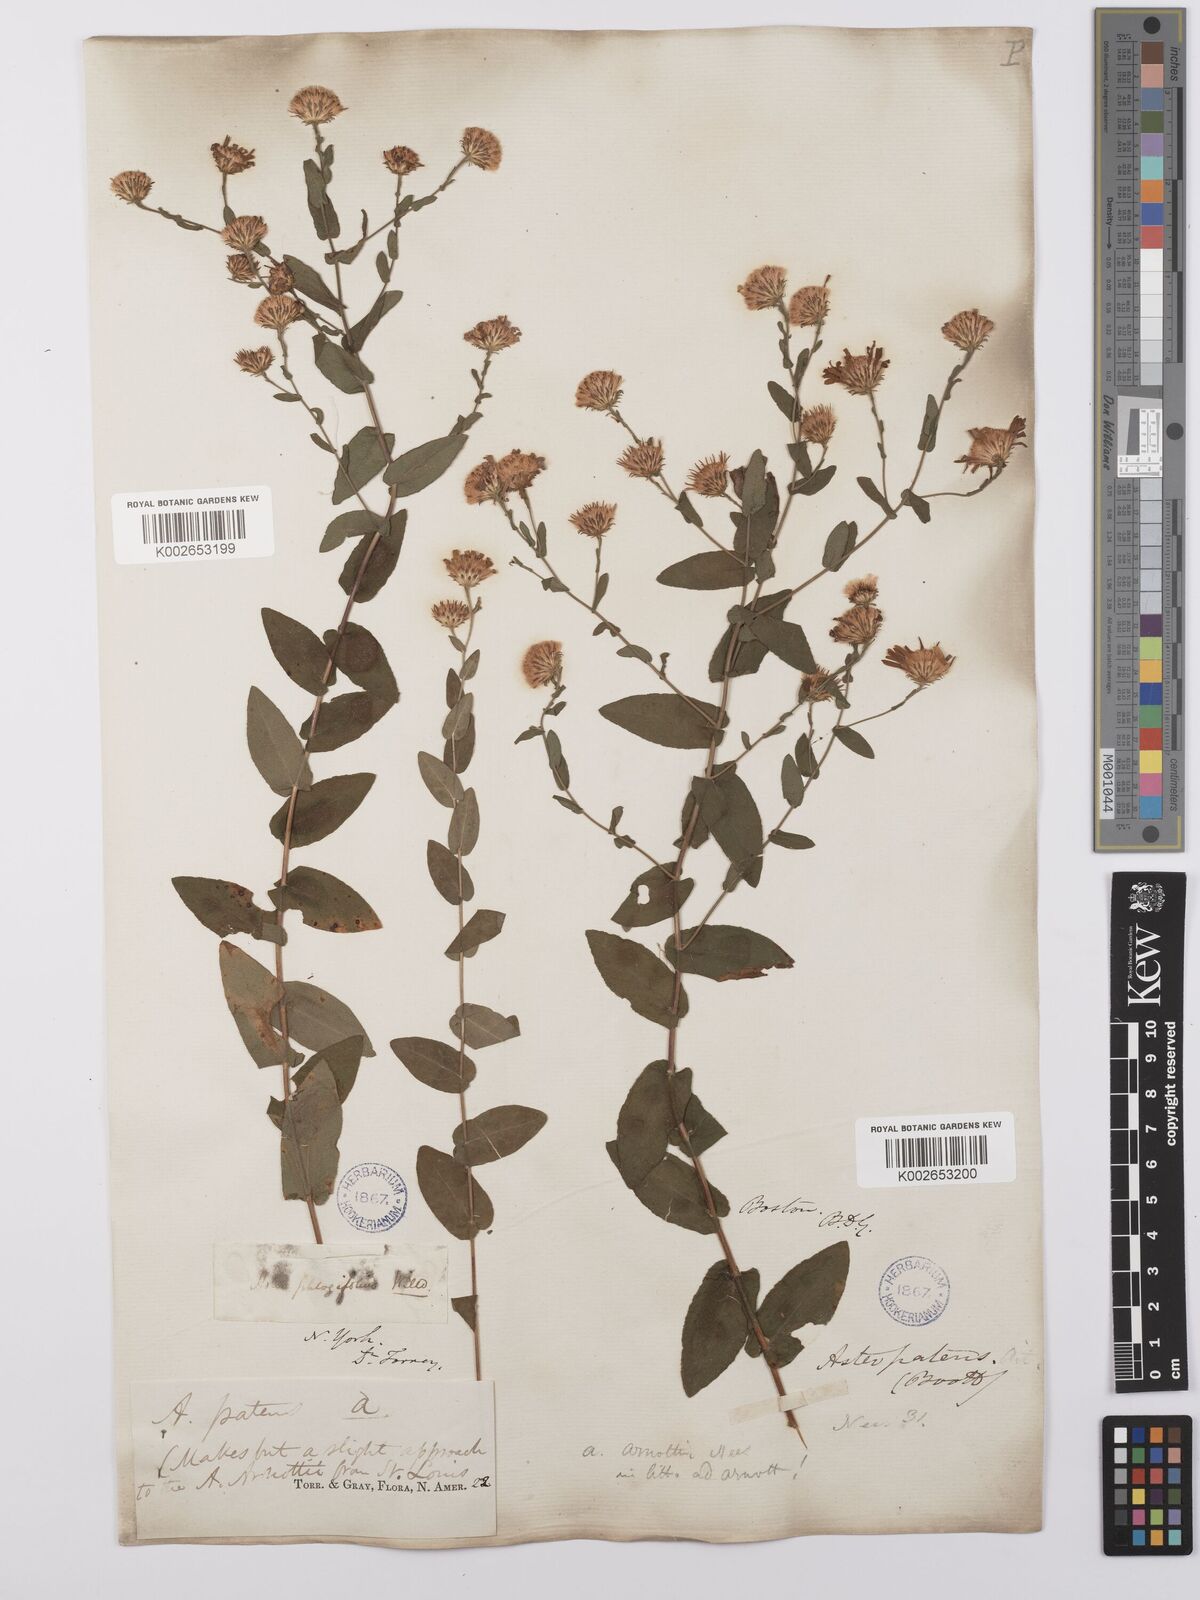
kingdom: Plantae
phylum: Tracheophyta
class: Magnoliopsida
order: Asterales
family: Asteraceae
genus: Symphyotrichum
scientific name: Symphyotrichum patens
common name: Late purple aster
